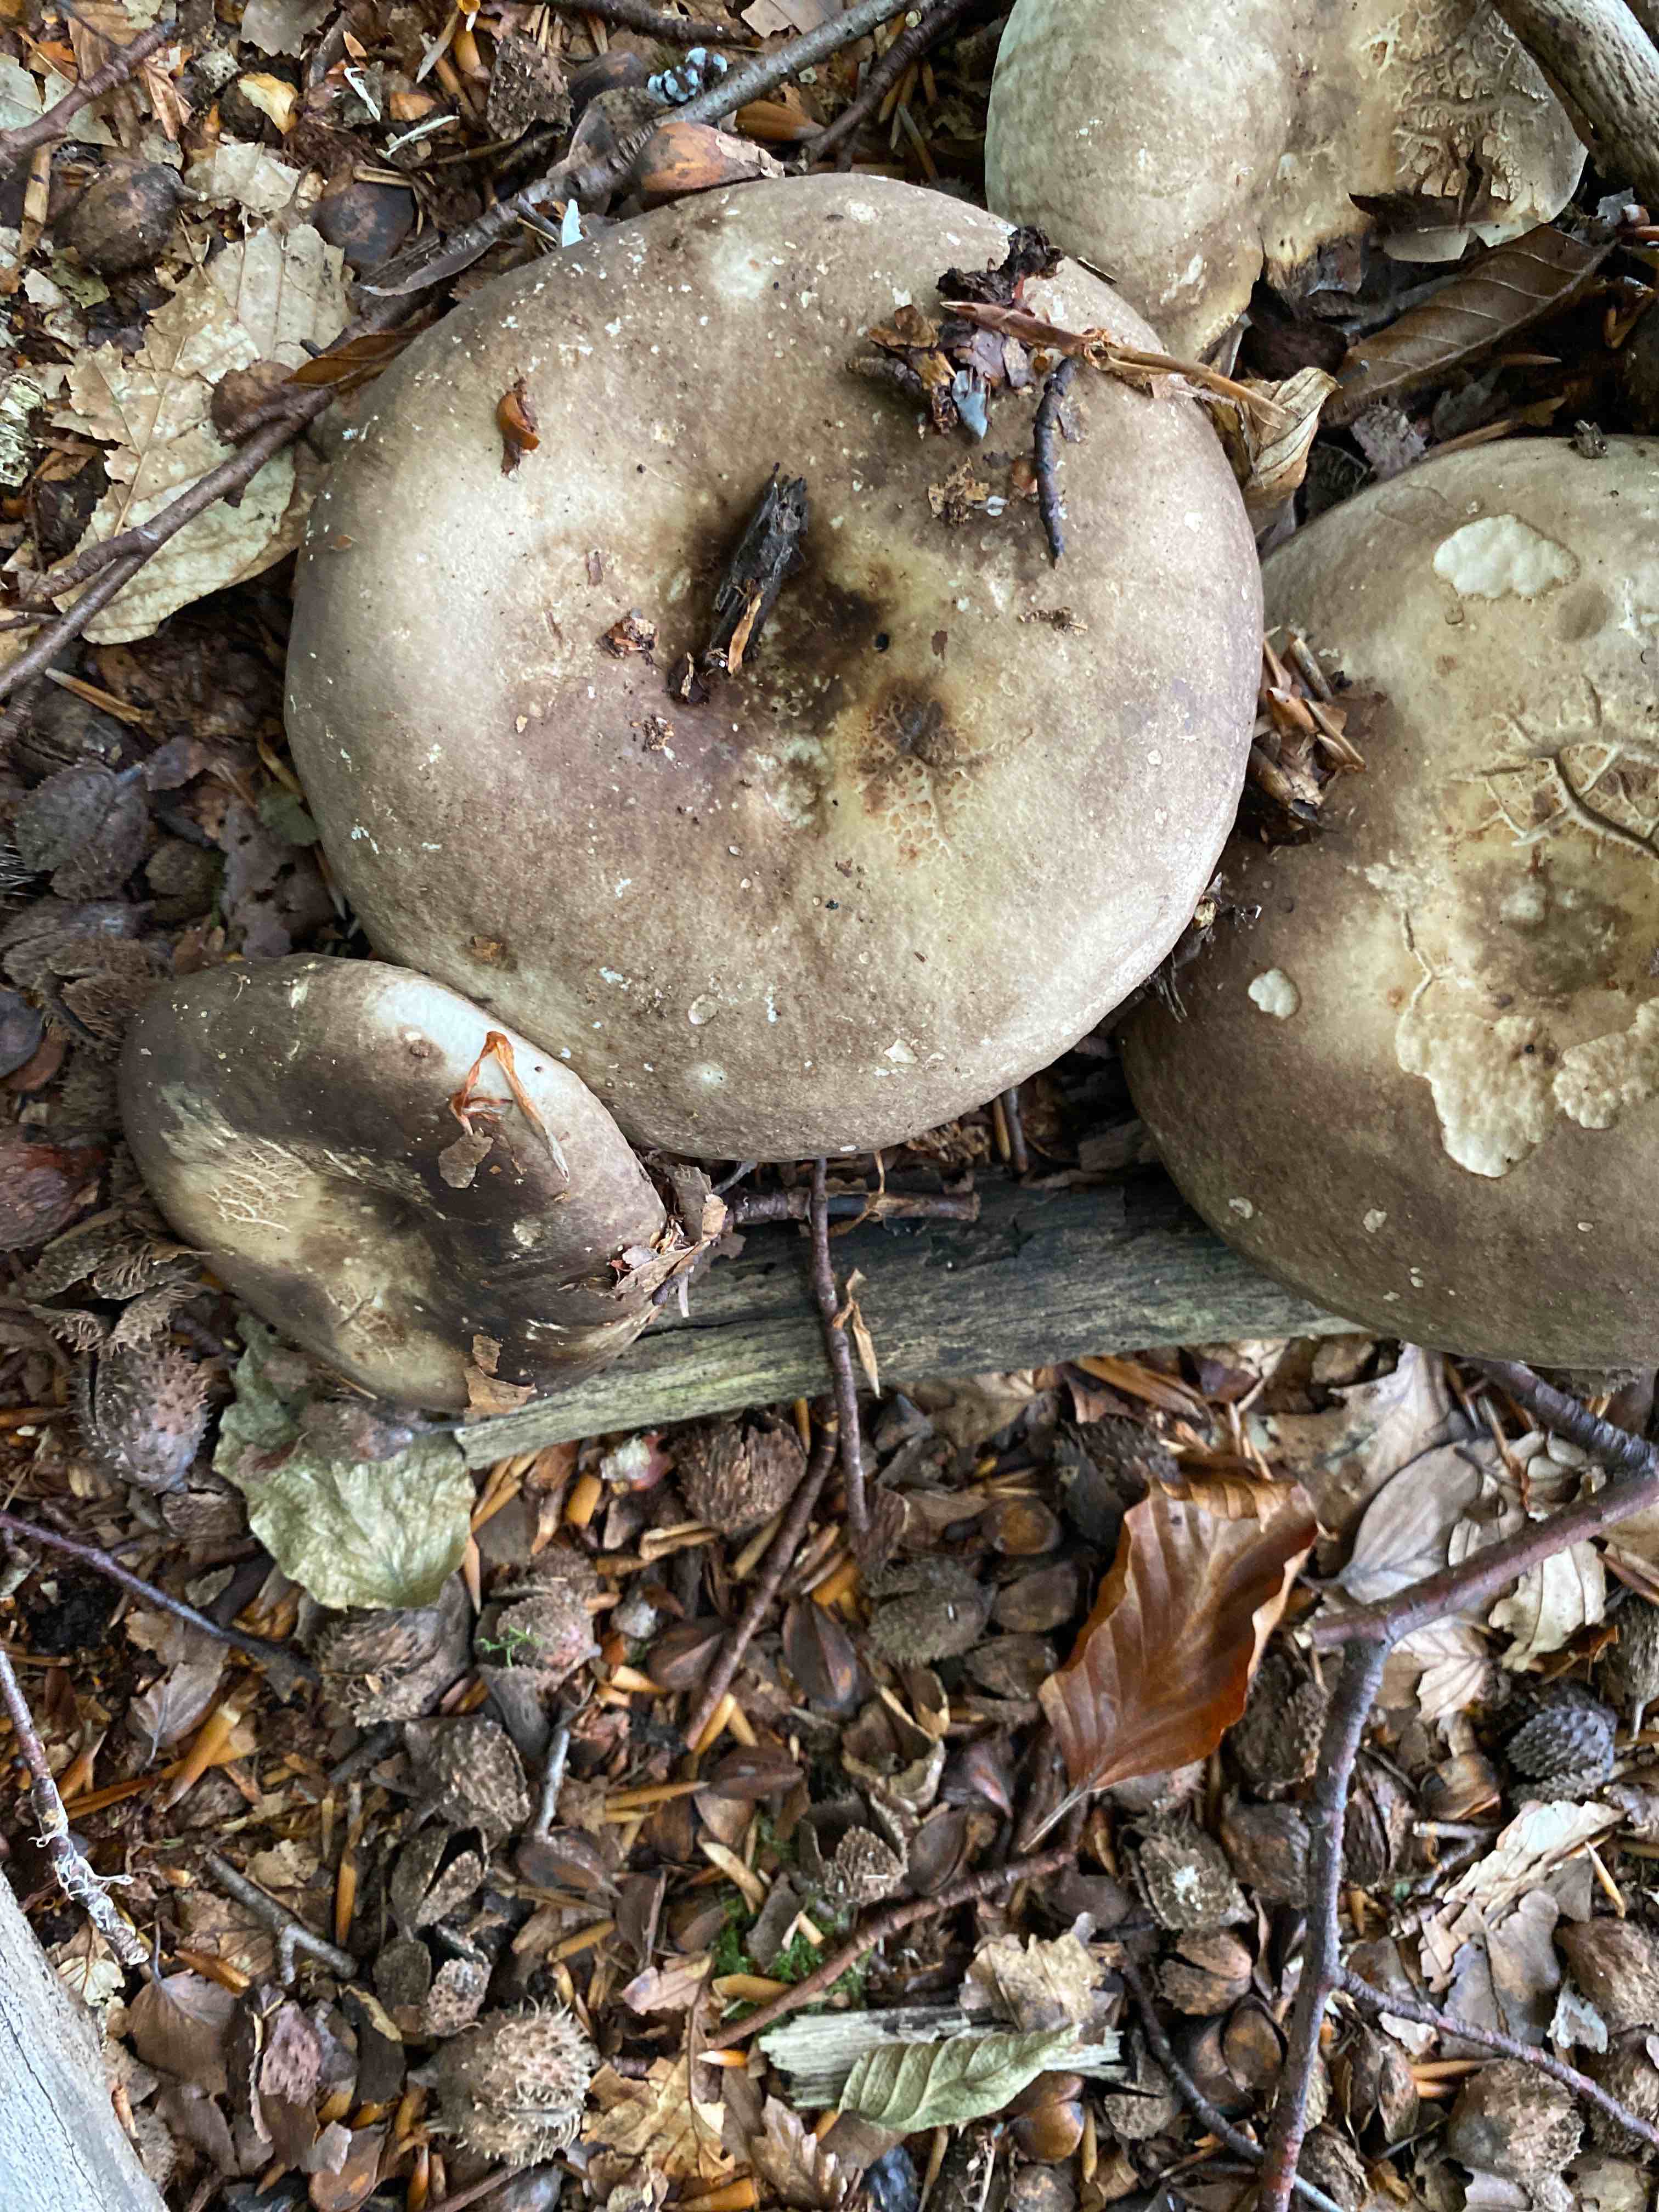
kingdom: Fungi
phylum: Basidiomycota
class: Agaricomycetes
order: Russulales
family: Russulaceae
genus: Russula
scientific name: Russula adusta
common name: sværtende skørhat
